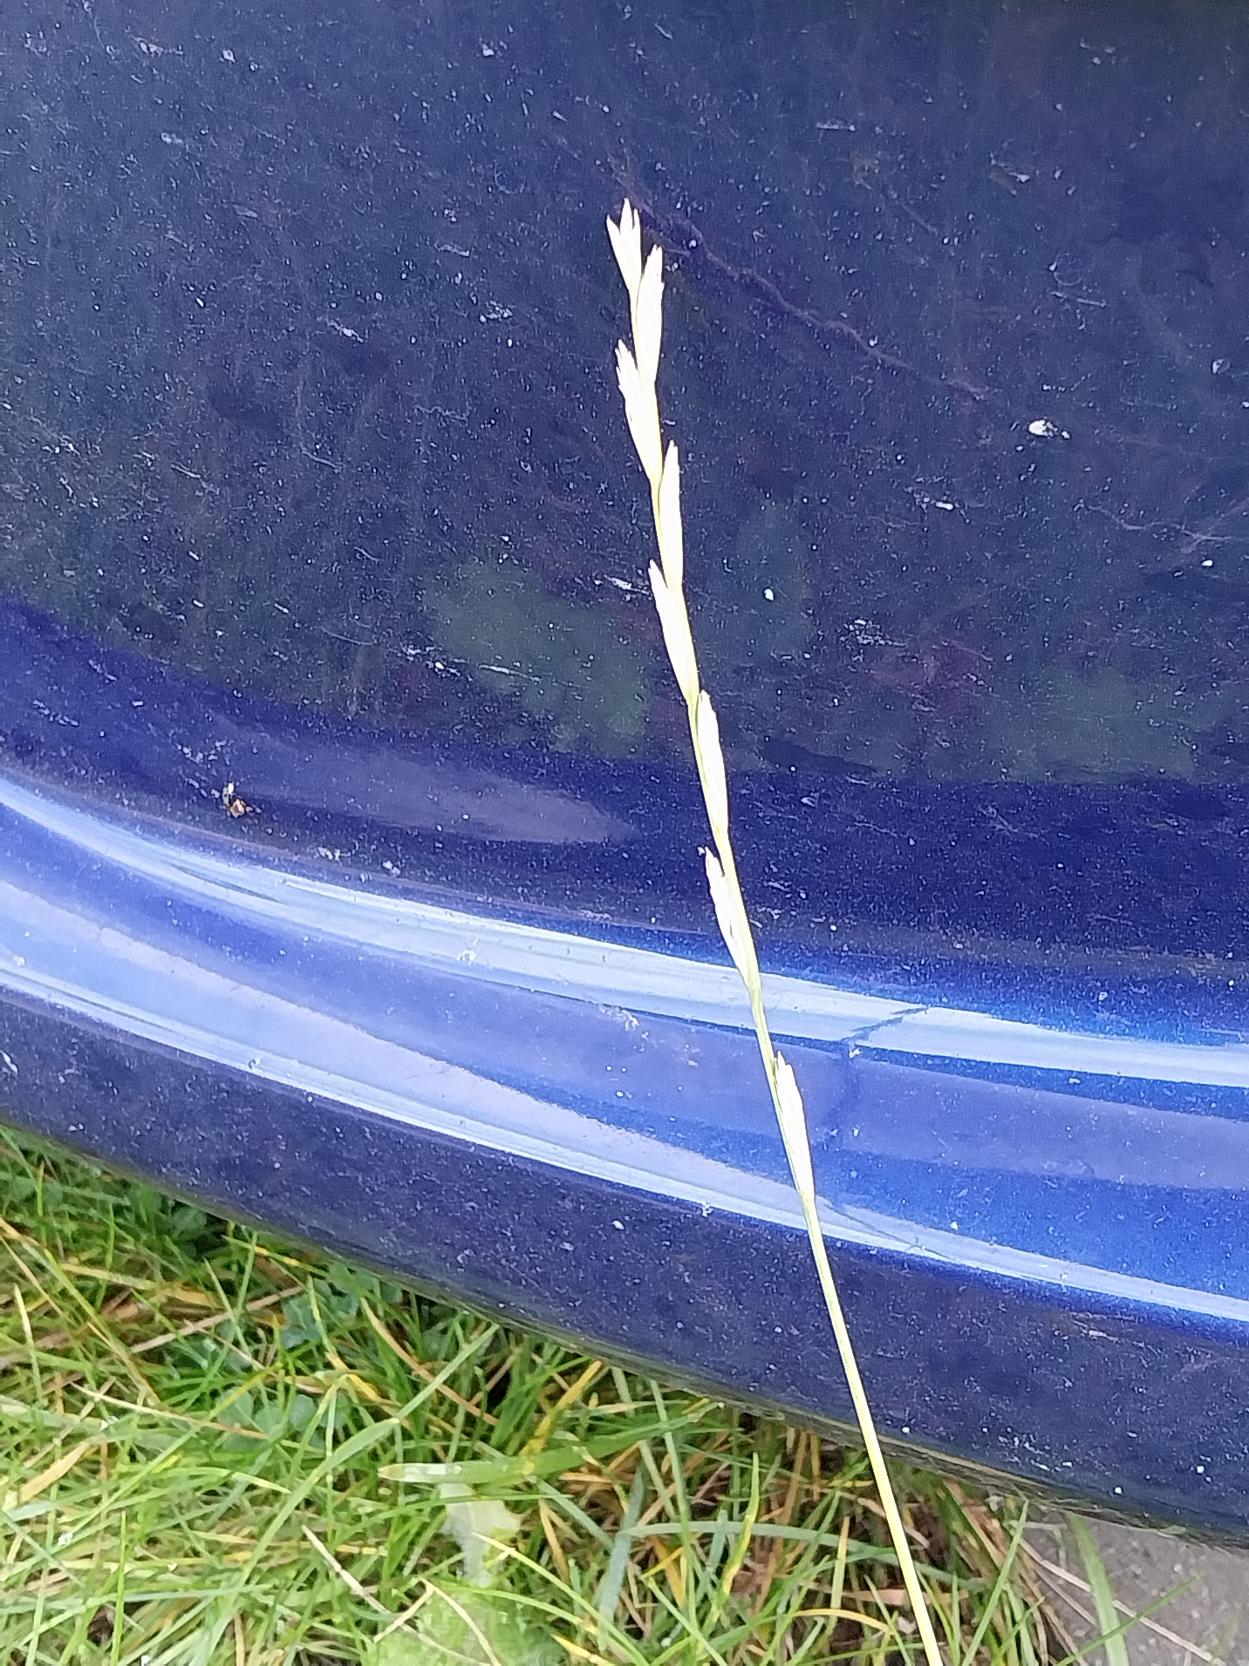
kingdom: Plantae
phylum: Tracheophyta
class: Liliopsida
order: Poales
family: Poaceae
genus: Lolium
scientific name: Lolium perenne
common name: Almindelig rajgræs
